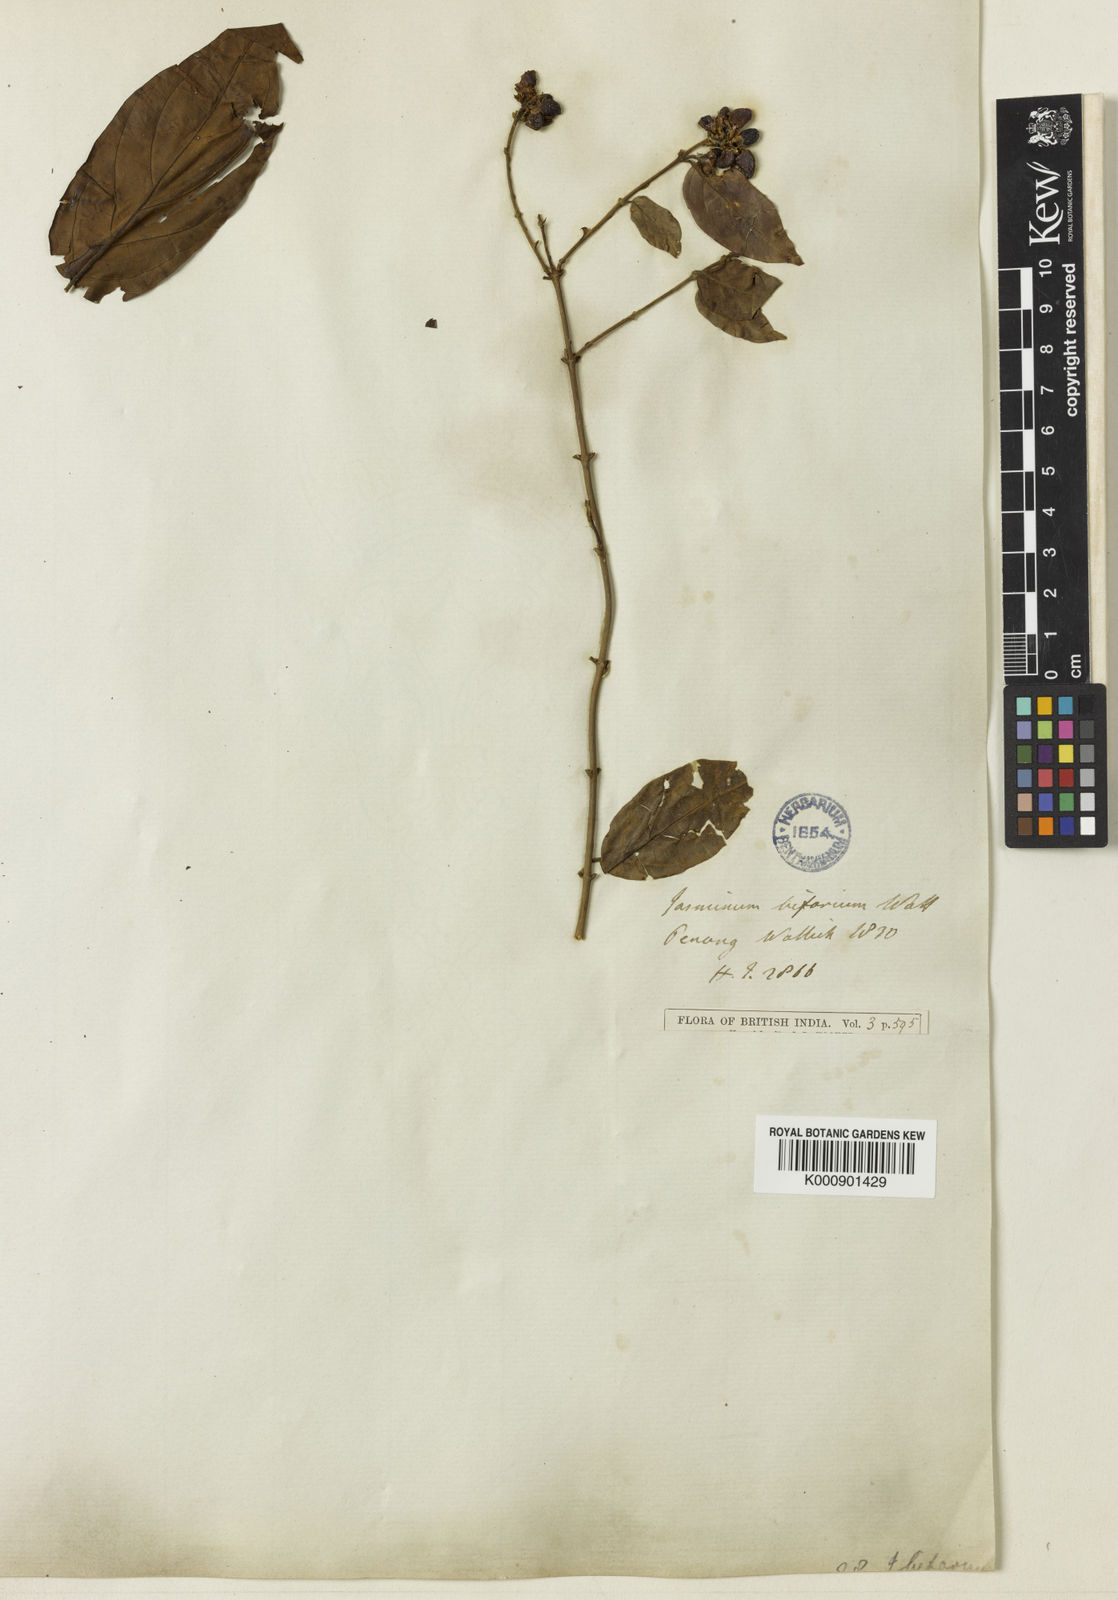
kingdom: Plantae
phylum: Tracheophyta
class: Magnoliopsida
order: Lamiales
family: Oleaceae
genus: Jasminum
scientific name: Jasminum elongatum
